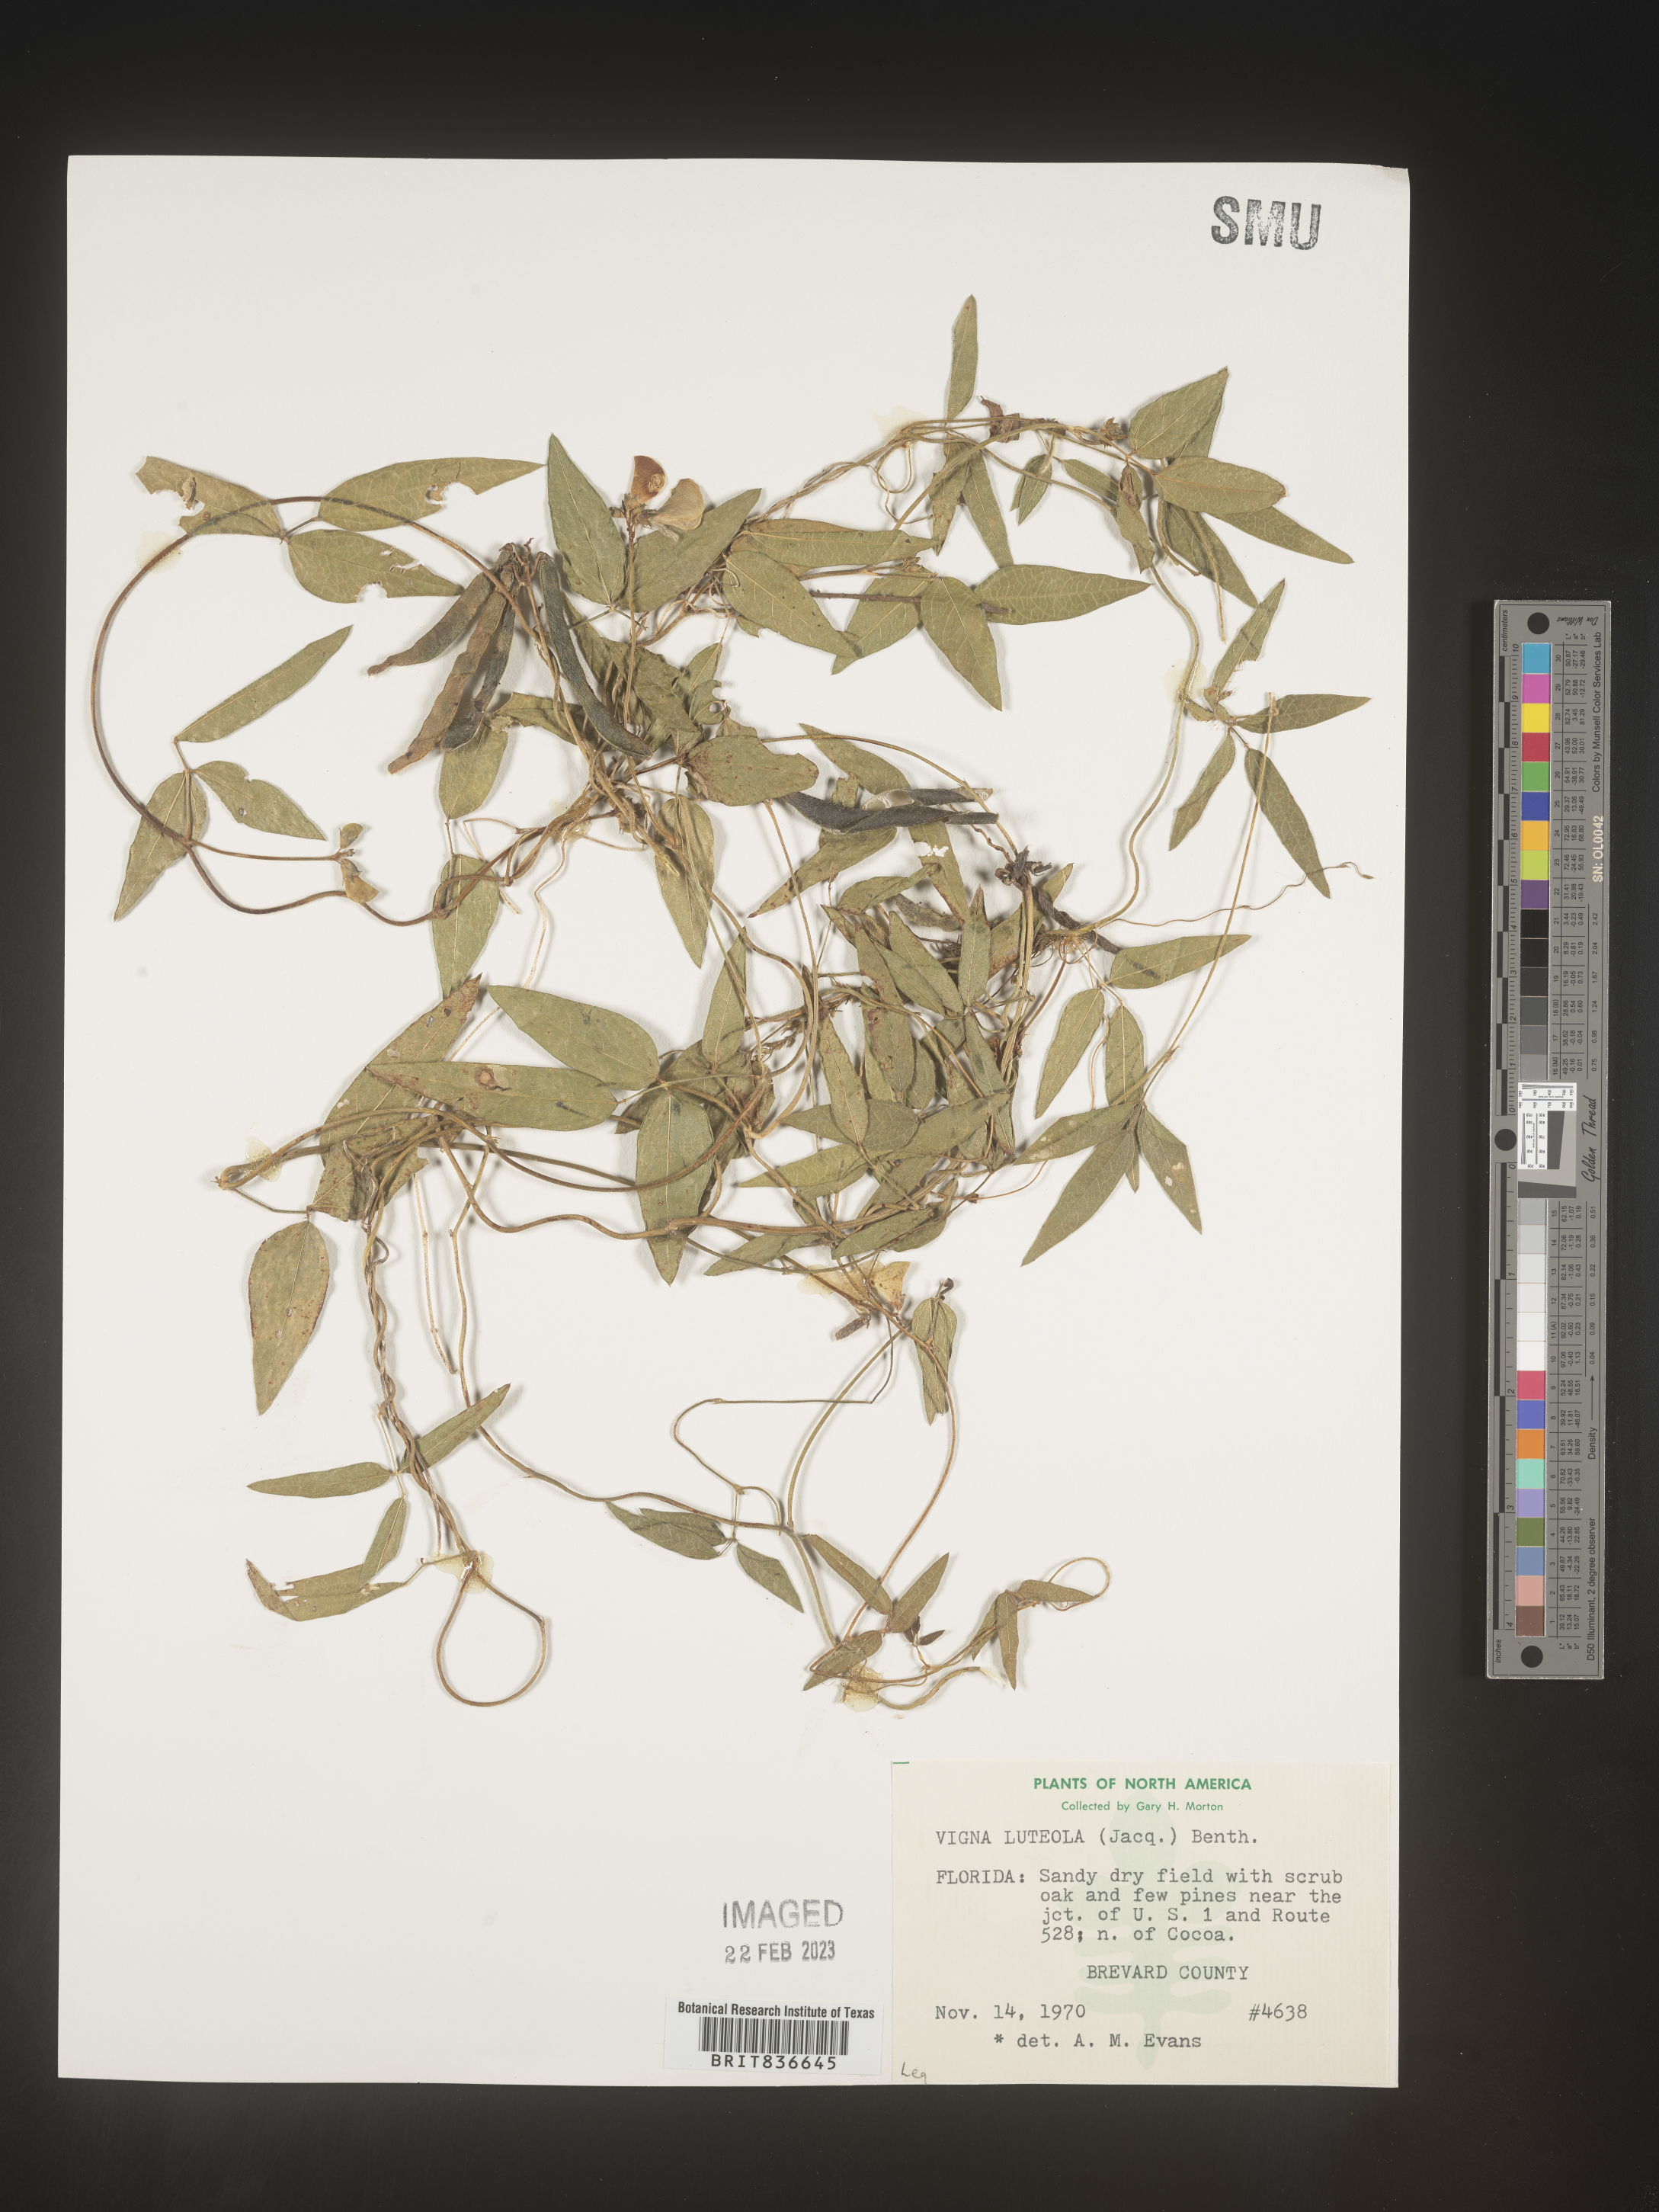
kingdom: Plantae
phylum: Tracheophyta
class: Magnoliopsida
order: Fabales
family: Fabaceae
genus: Vigna
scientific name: Vigna luteola
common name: Hairypod cowpea
